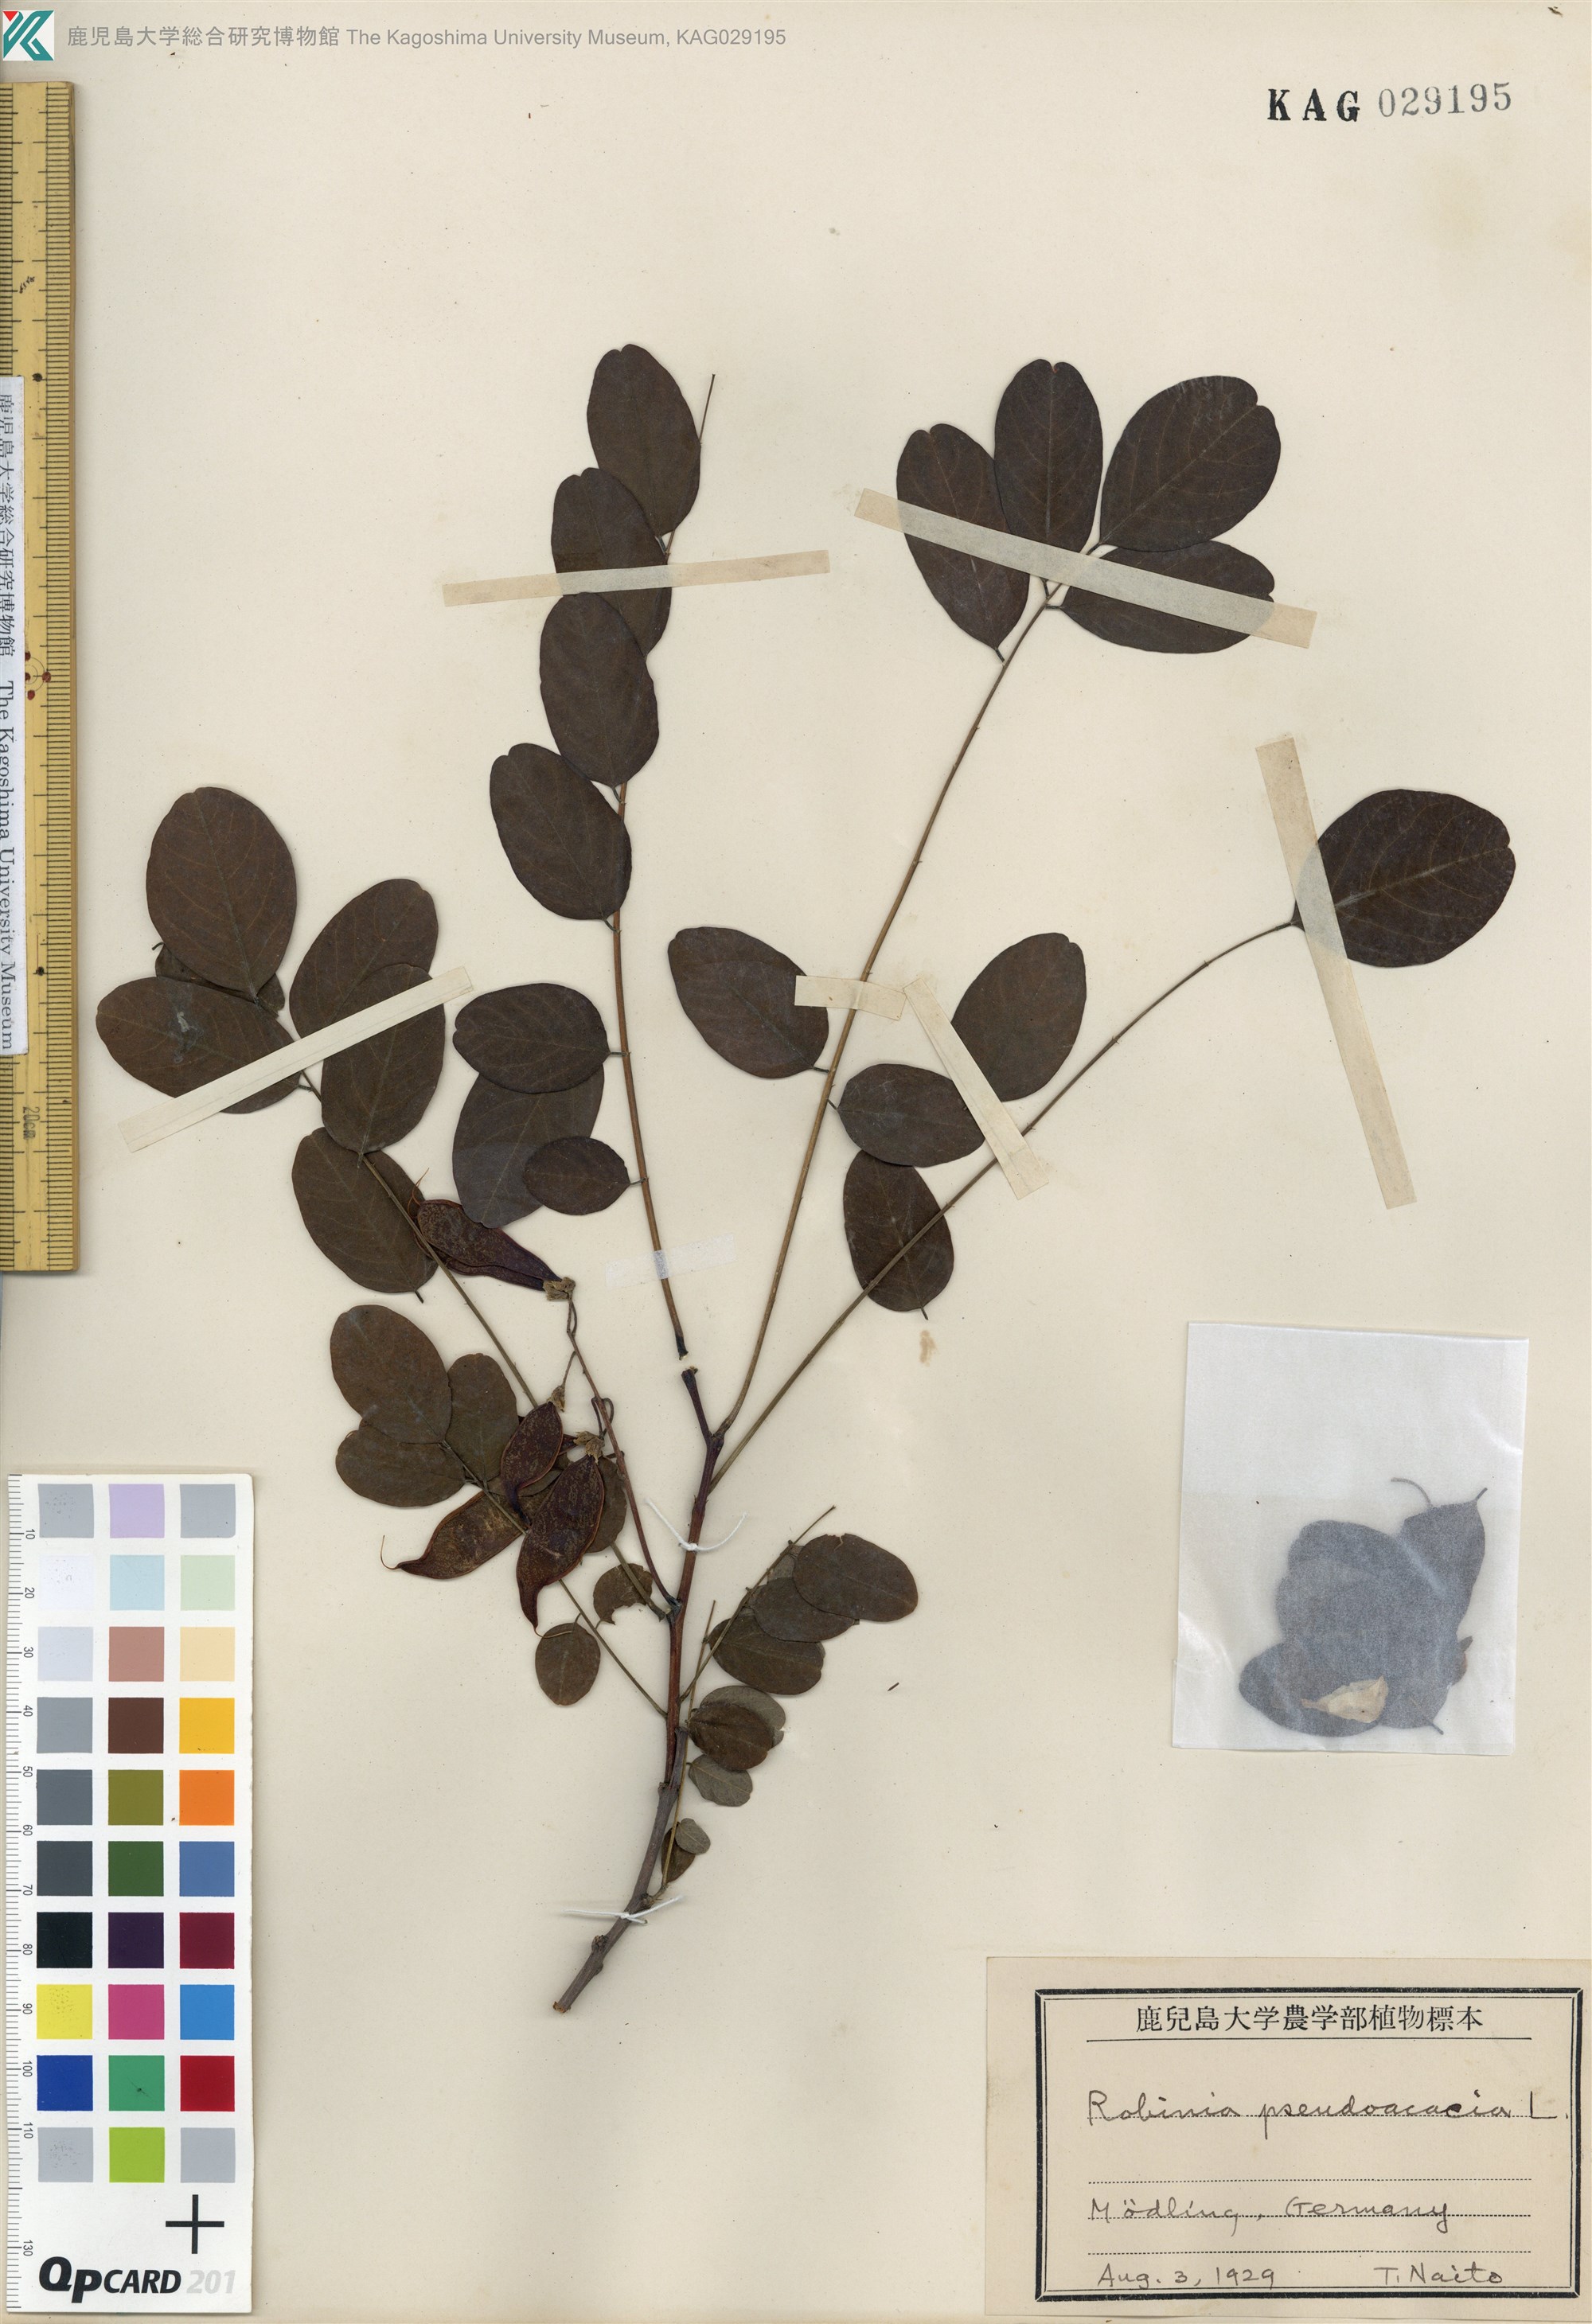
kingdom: Plantae
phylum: Tracheophyta
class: Magnoliopsida
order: Fabales
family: Fabaceae
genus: Robinia
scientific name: Robinia pseudoacacia
